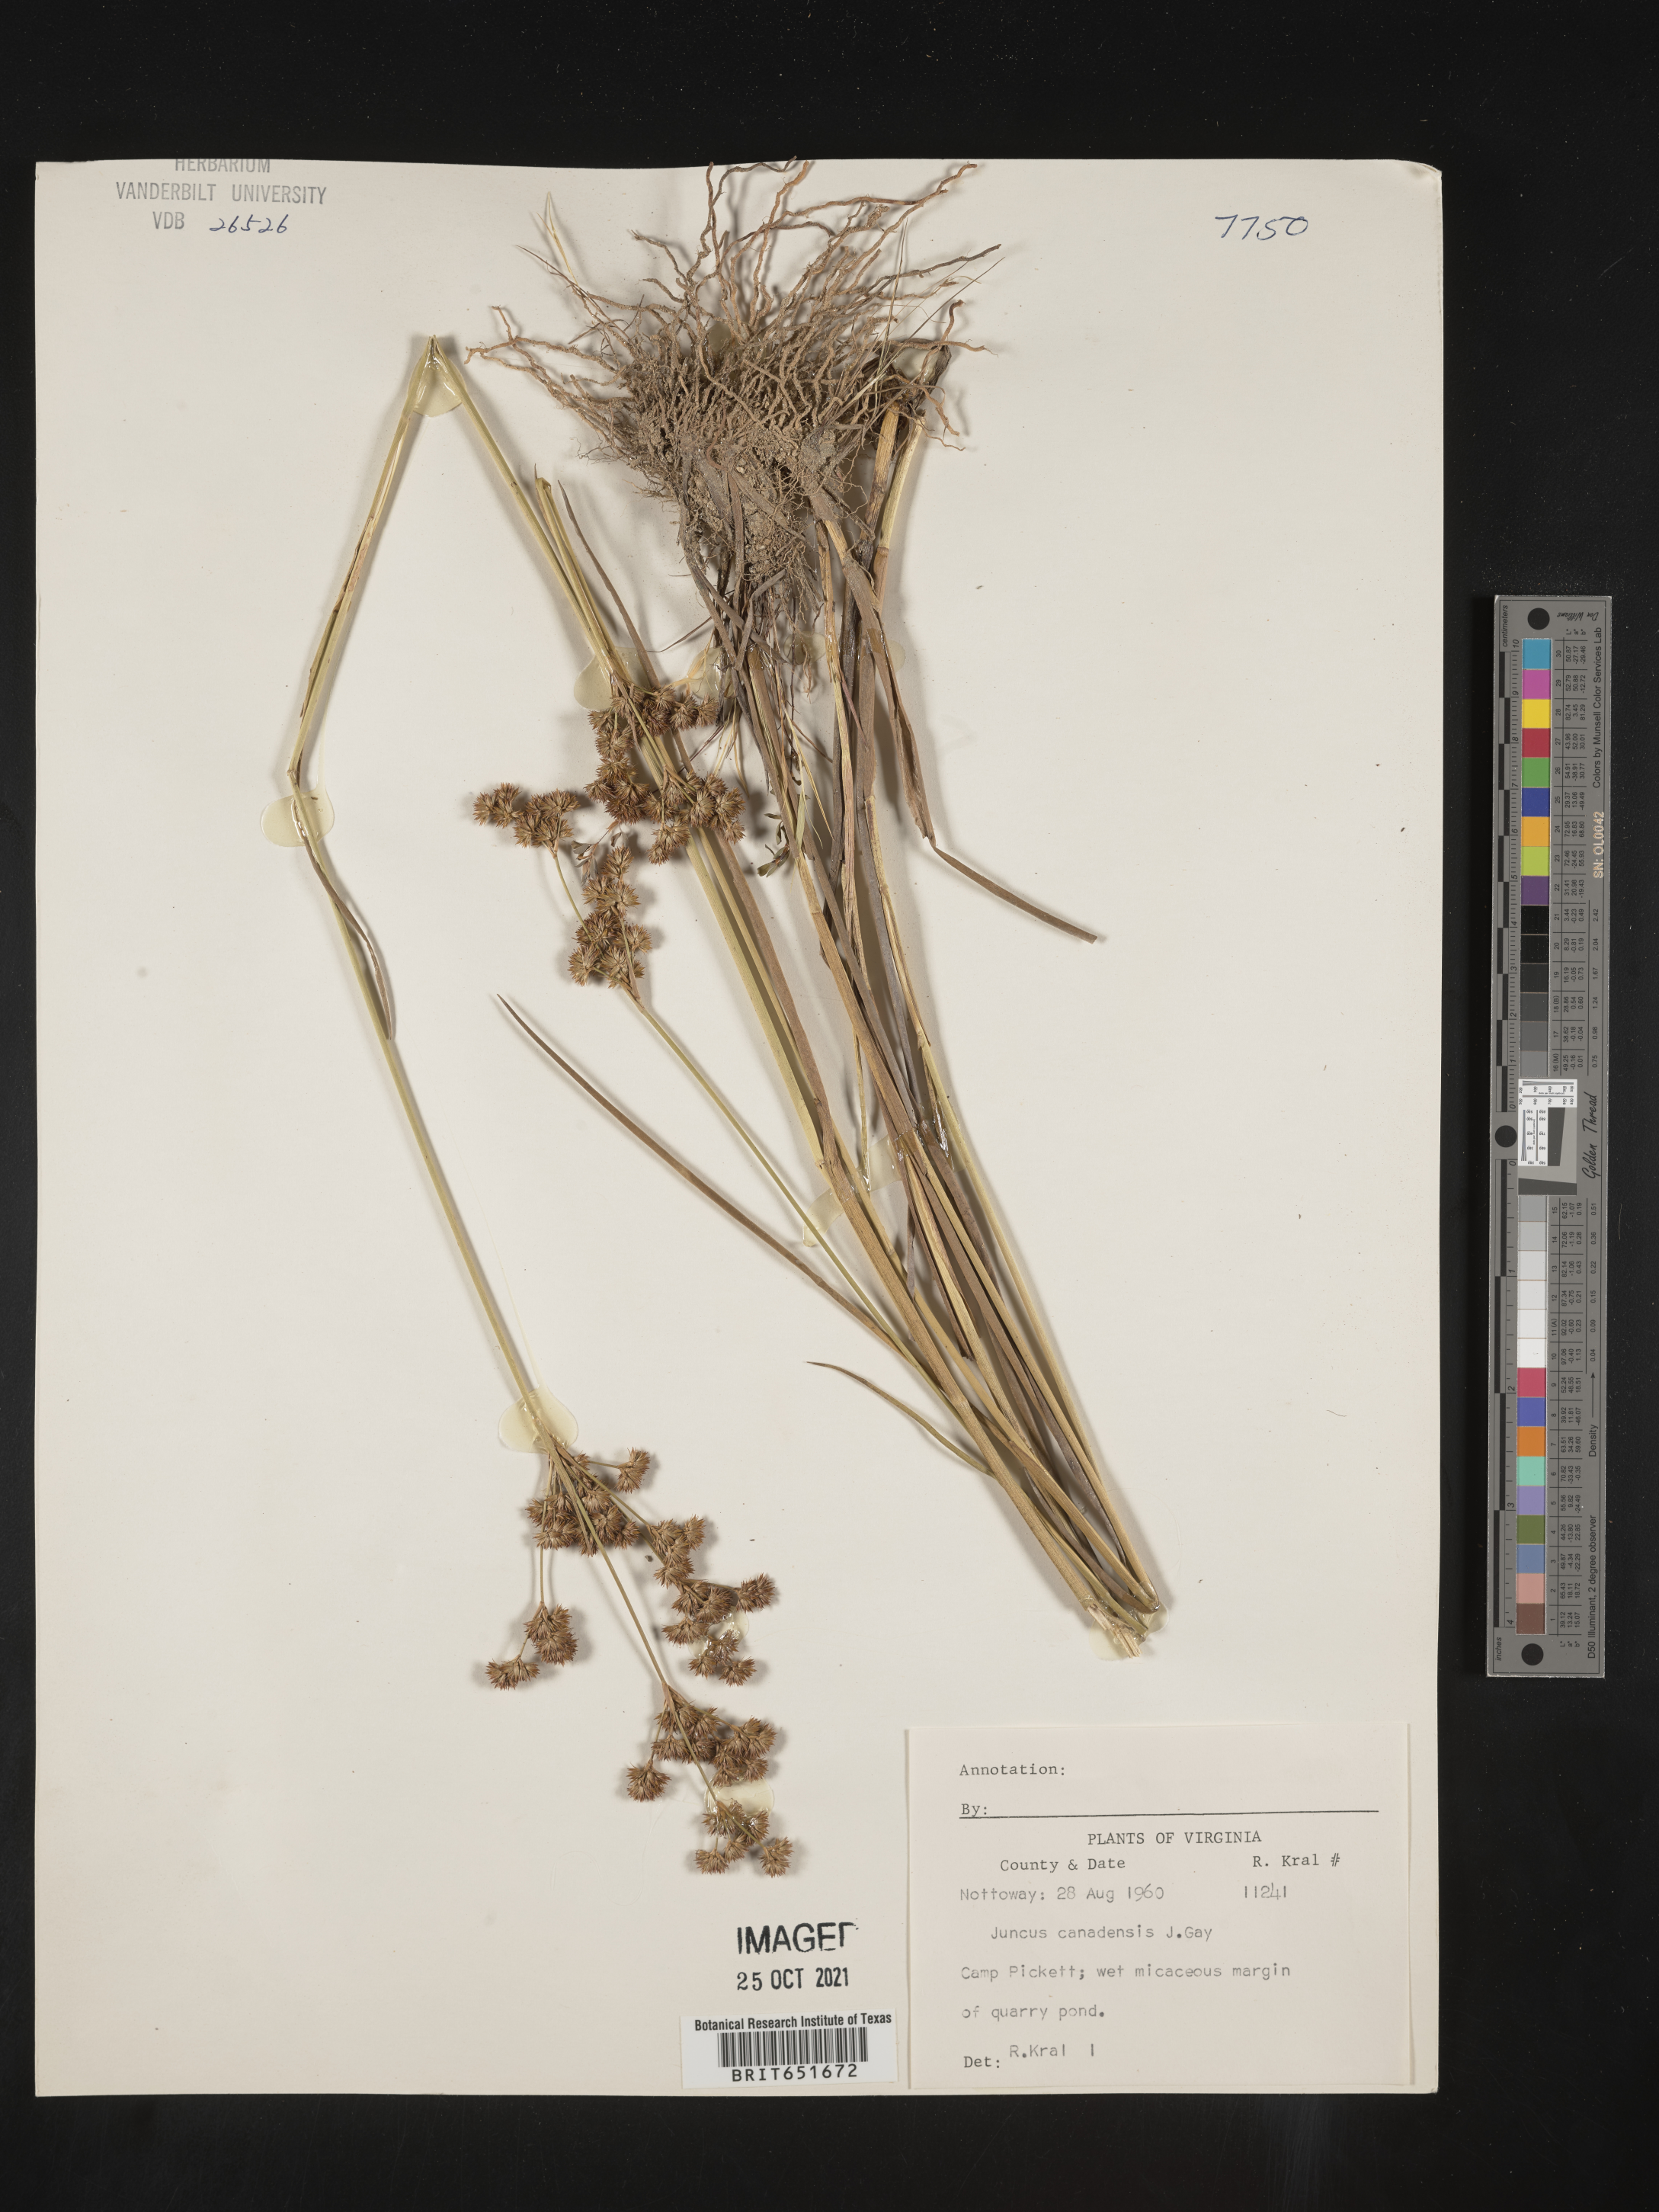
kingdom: Plantae
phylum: Tracheophyta
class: Liliopsida
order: Poales
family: Juncaceae
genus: Juncus
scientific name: Juncus canadensis
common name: Canada rush
